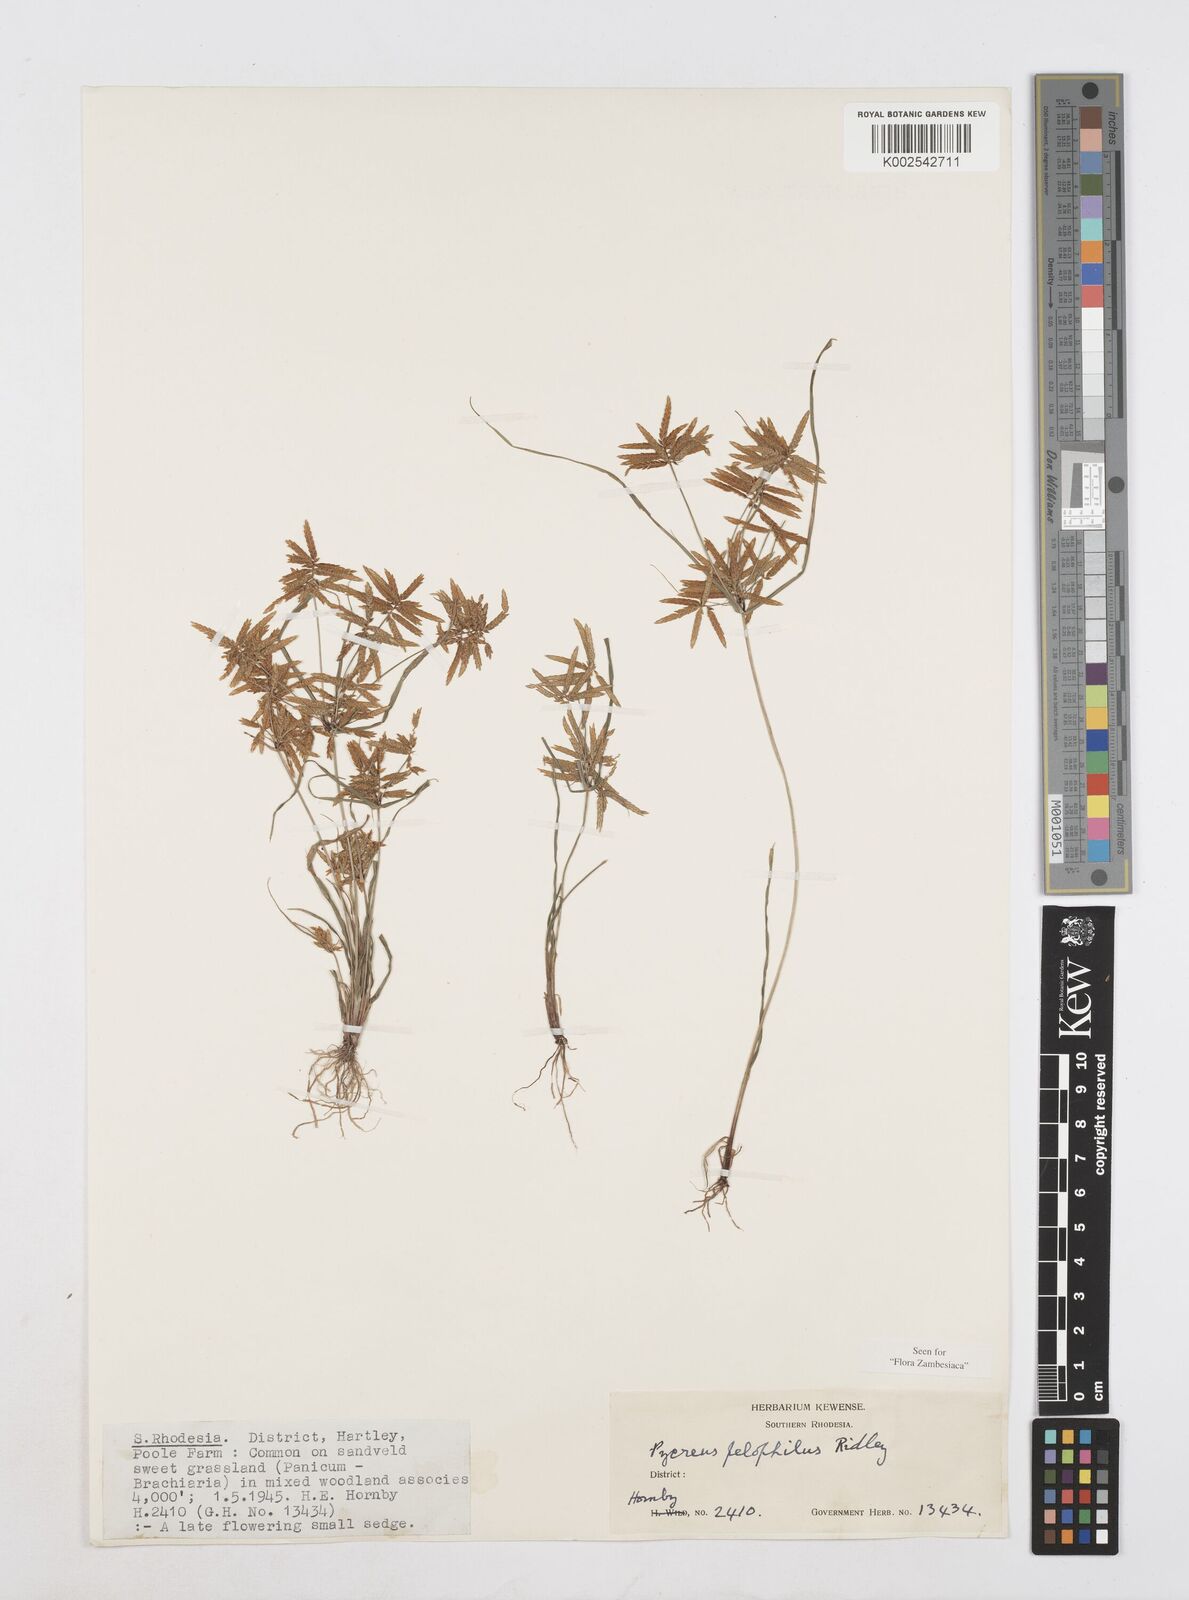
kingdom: Plantae
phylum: Tracheophyta
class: Liliopsida
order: Poales
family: Cyperaceae
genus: Cyperus
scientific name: Cyperus pelophilus
